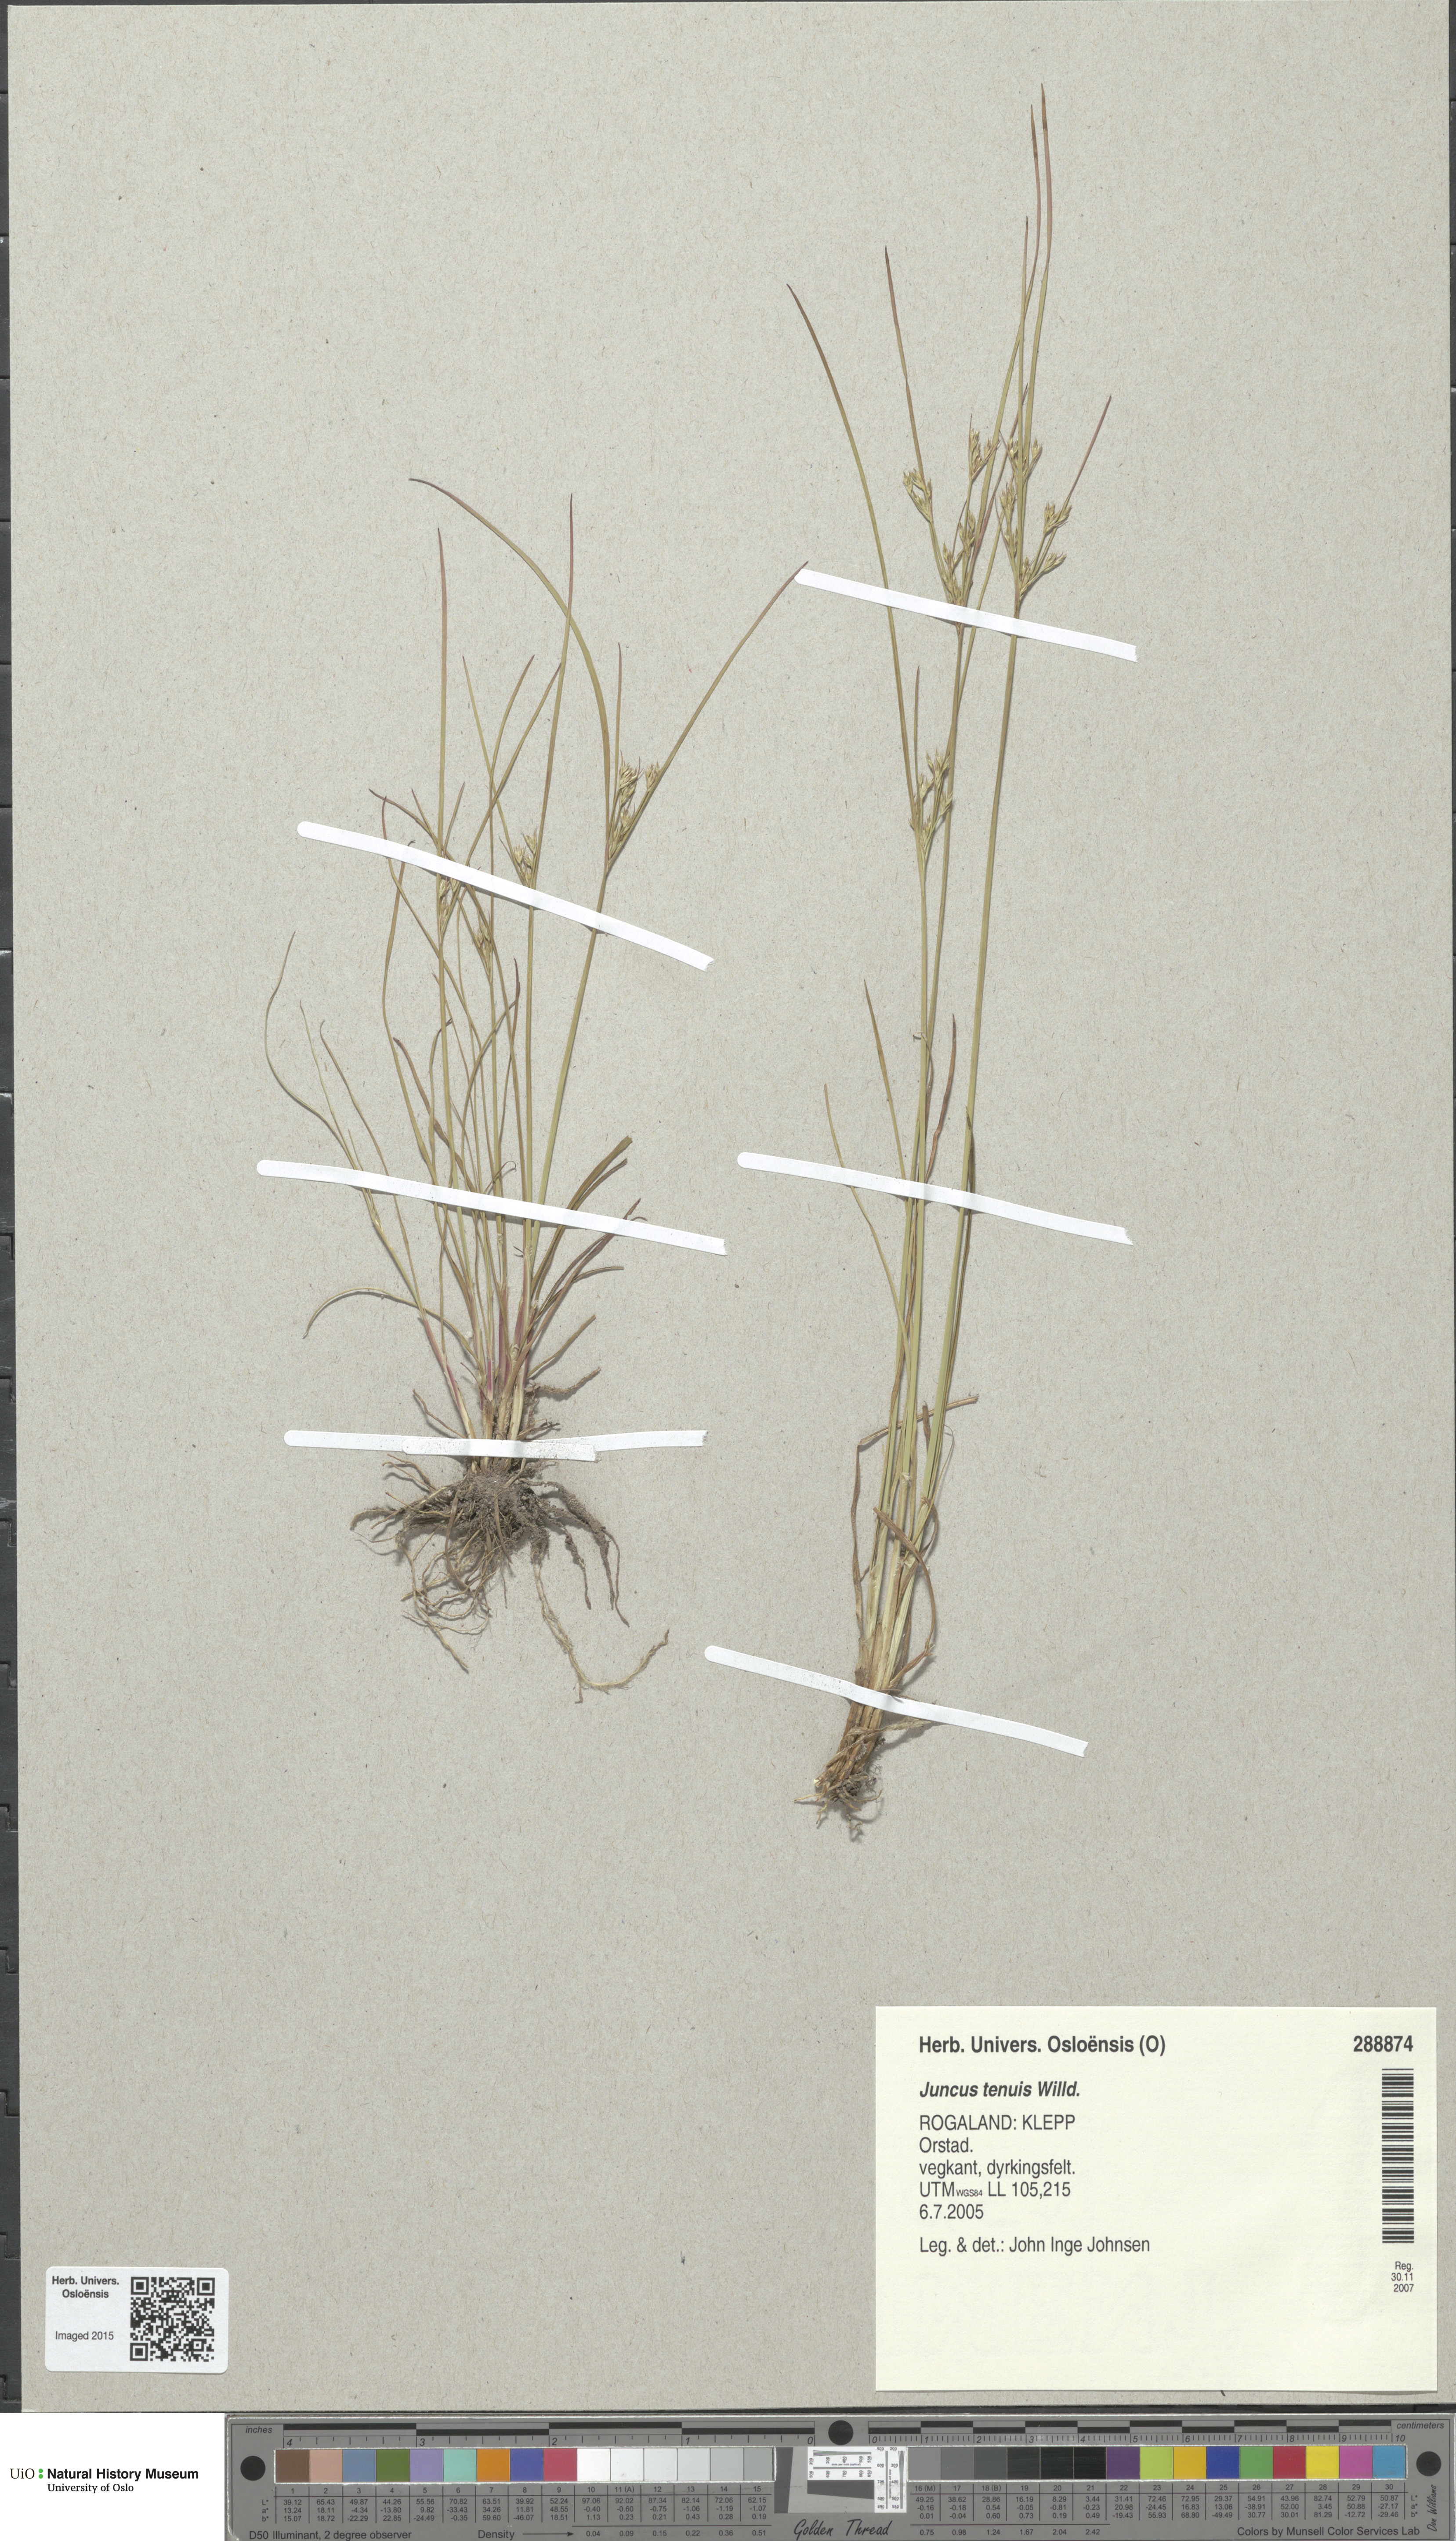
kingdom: Plantae
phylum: Tracheophyta
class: Liliopsida
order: Poales
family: Juncaceae
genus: Juncus
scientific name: Juncus tenuis
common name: Slender rush
